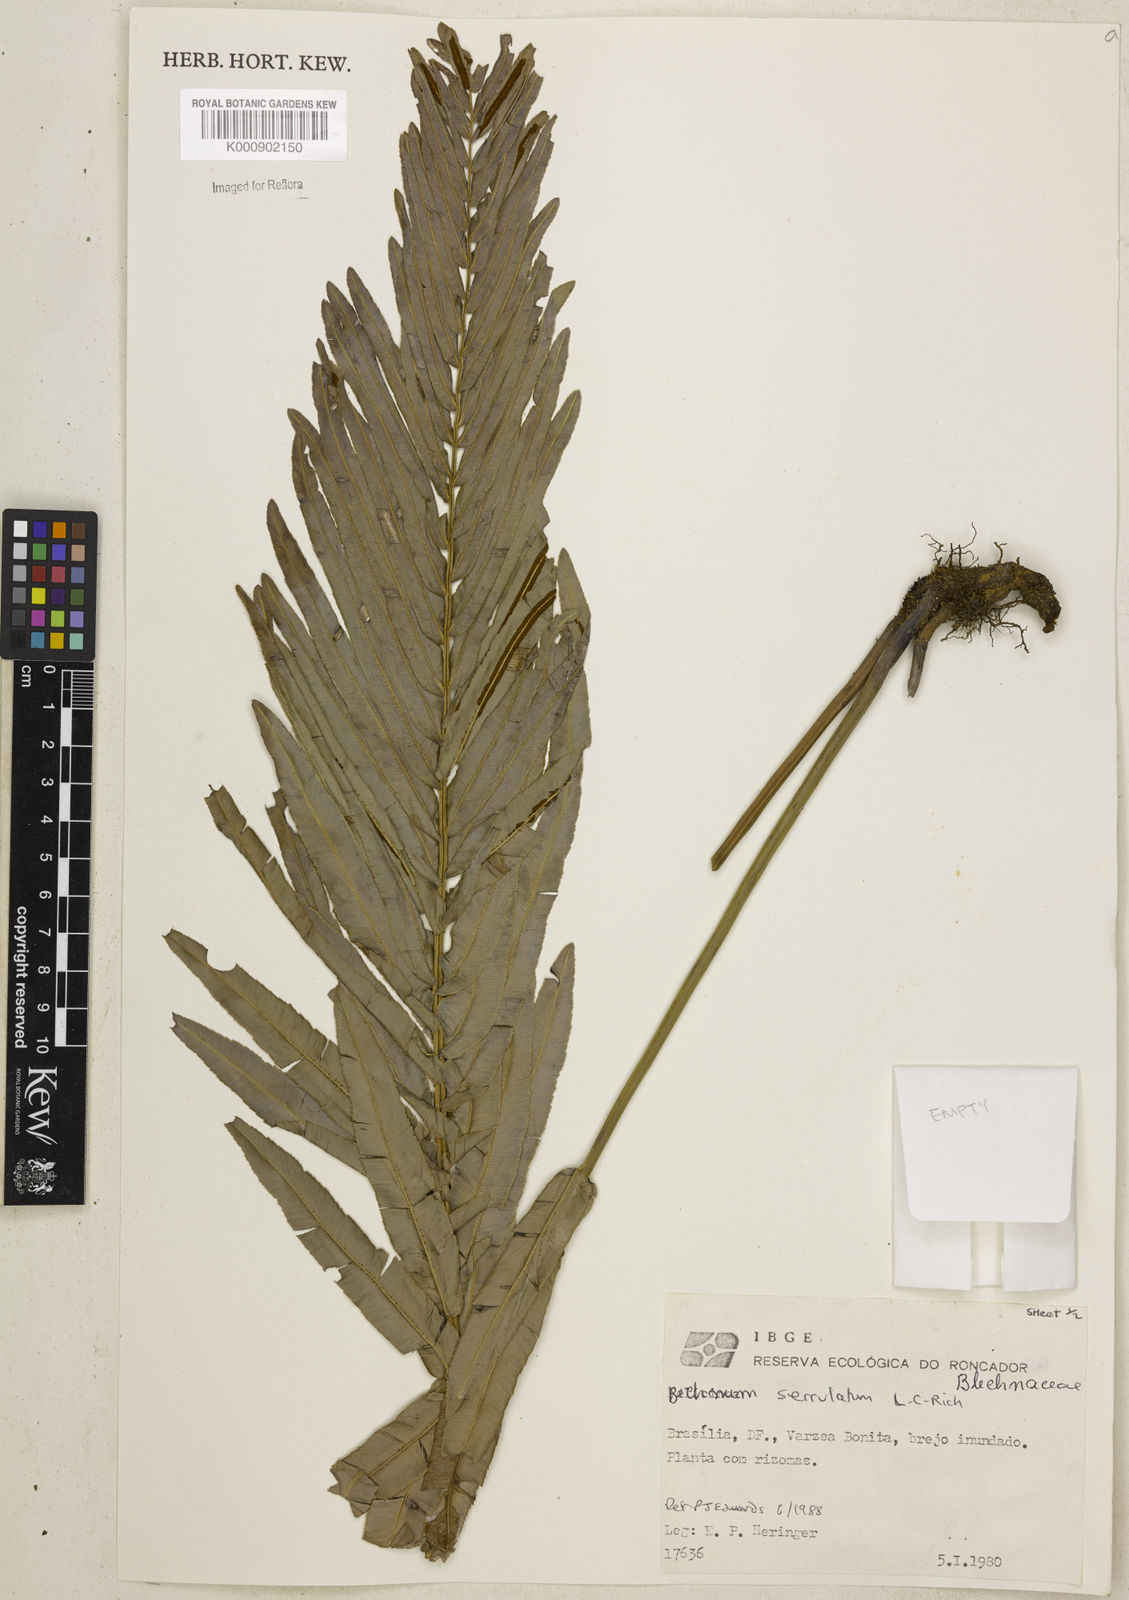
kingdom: Plantae
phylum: Tracheophyta
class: Polypodiopsida
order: Polypodiales
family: Blechnaceae
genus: Telmatoblechnum
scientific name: Telmatoblechnum serrulatum
